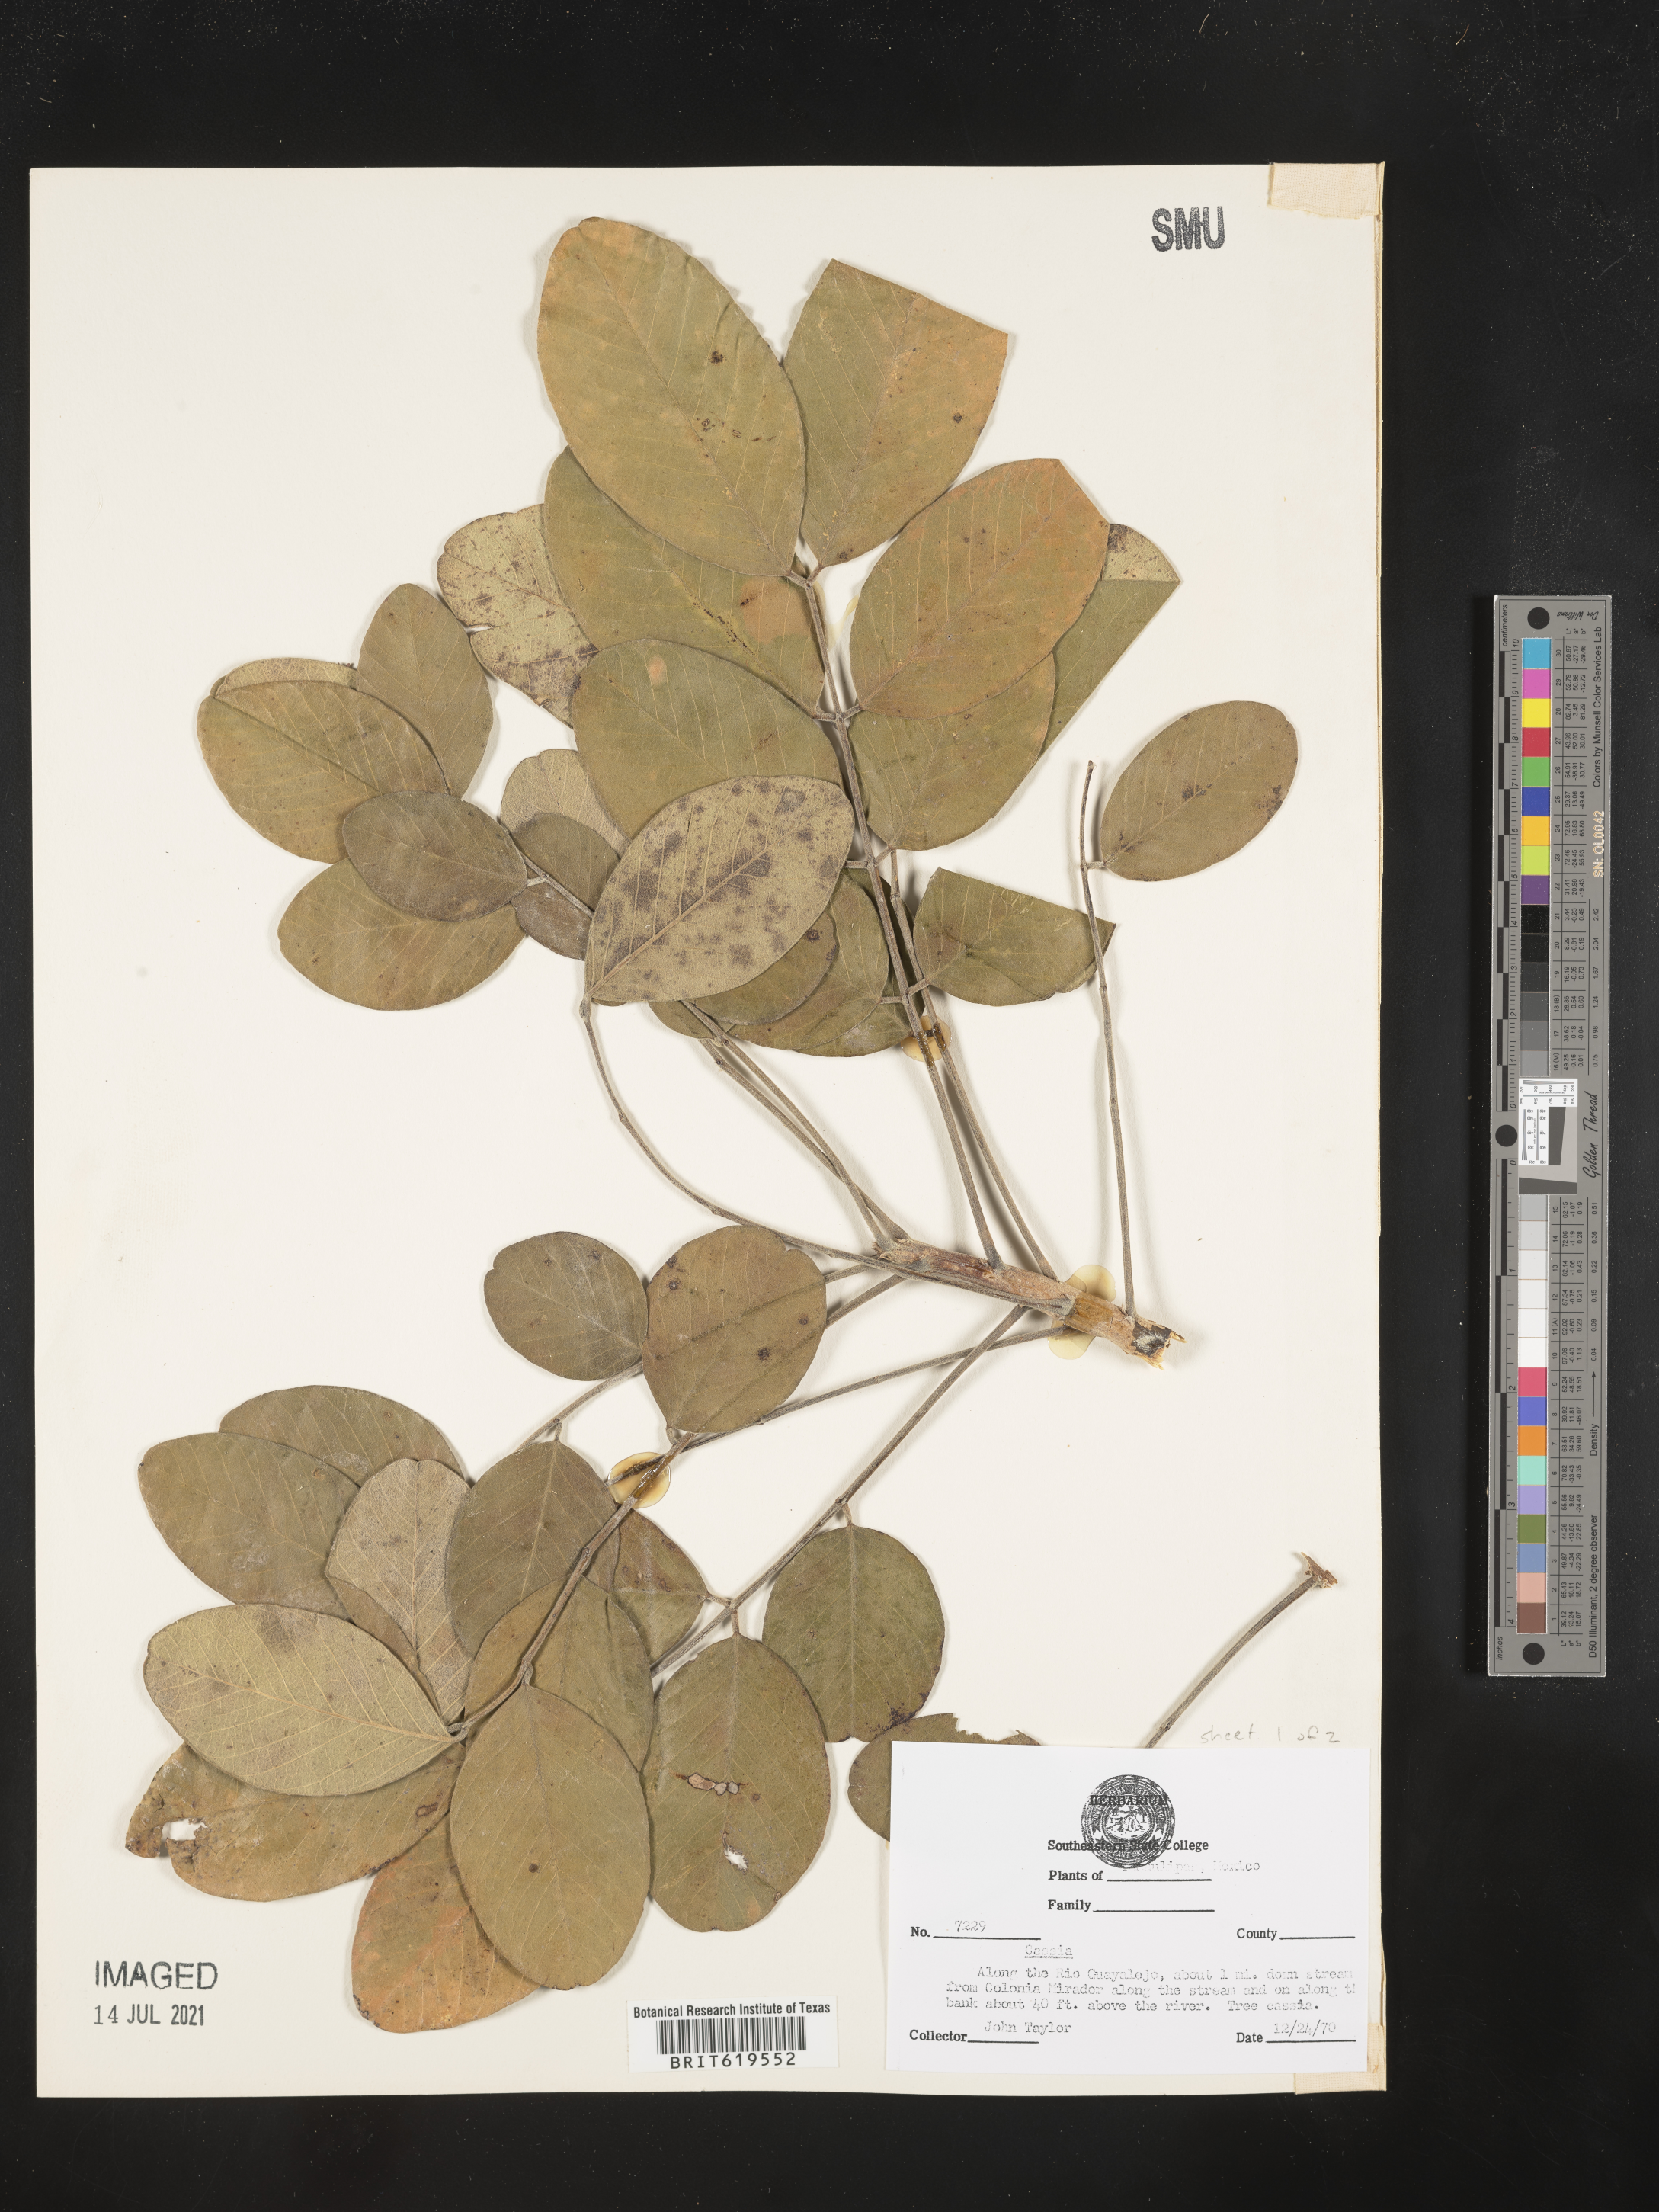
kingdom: Plantae
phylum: Tracheophyta
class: Magnoliopsida
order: Fabales
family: Fabaceae
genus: Cassia
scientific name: Cassia
